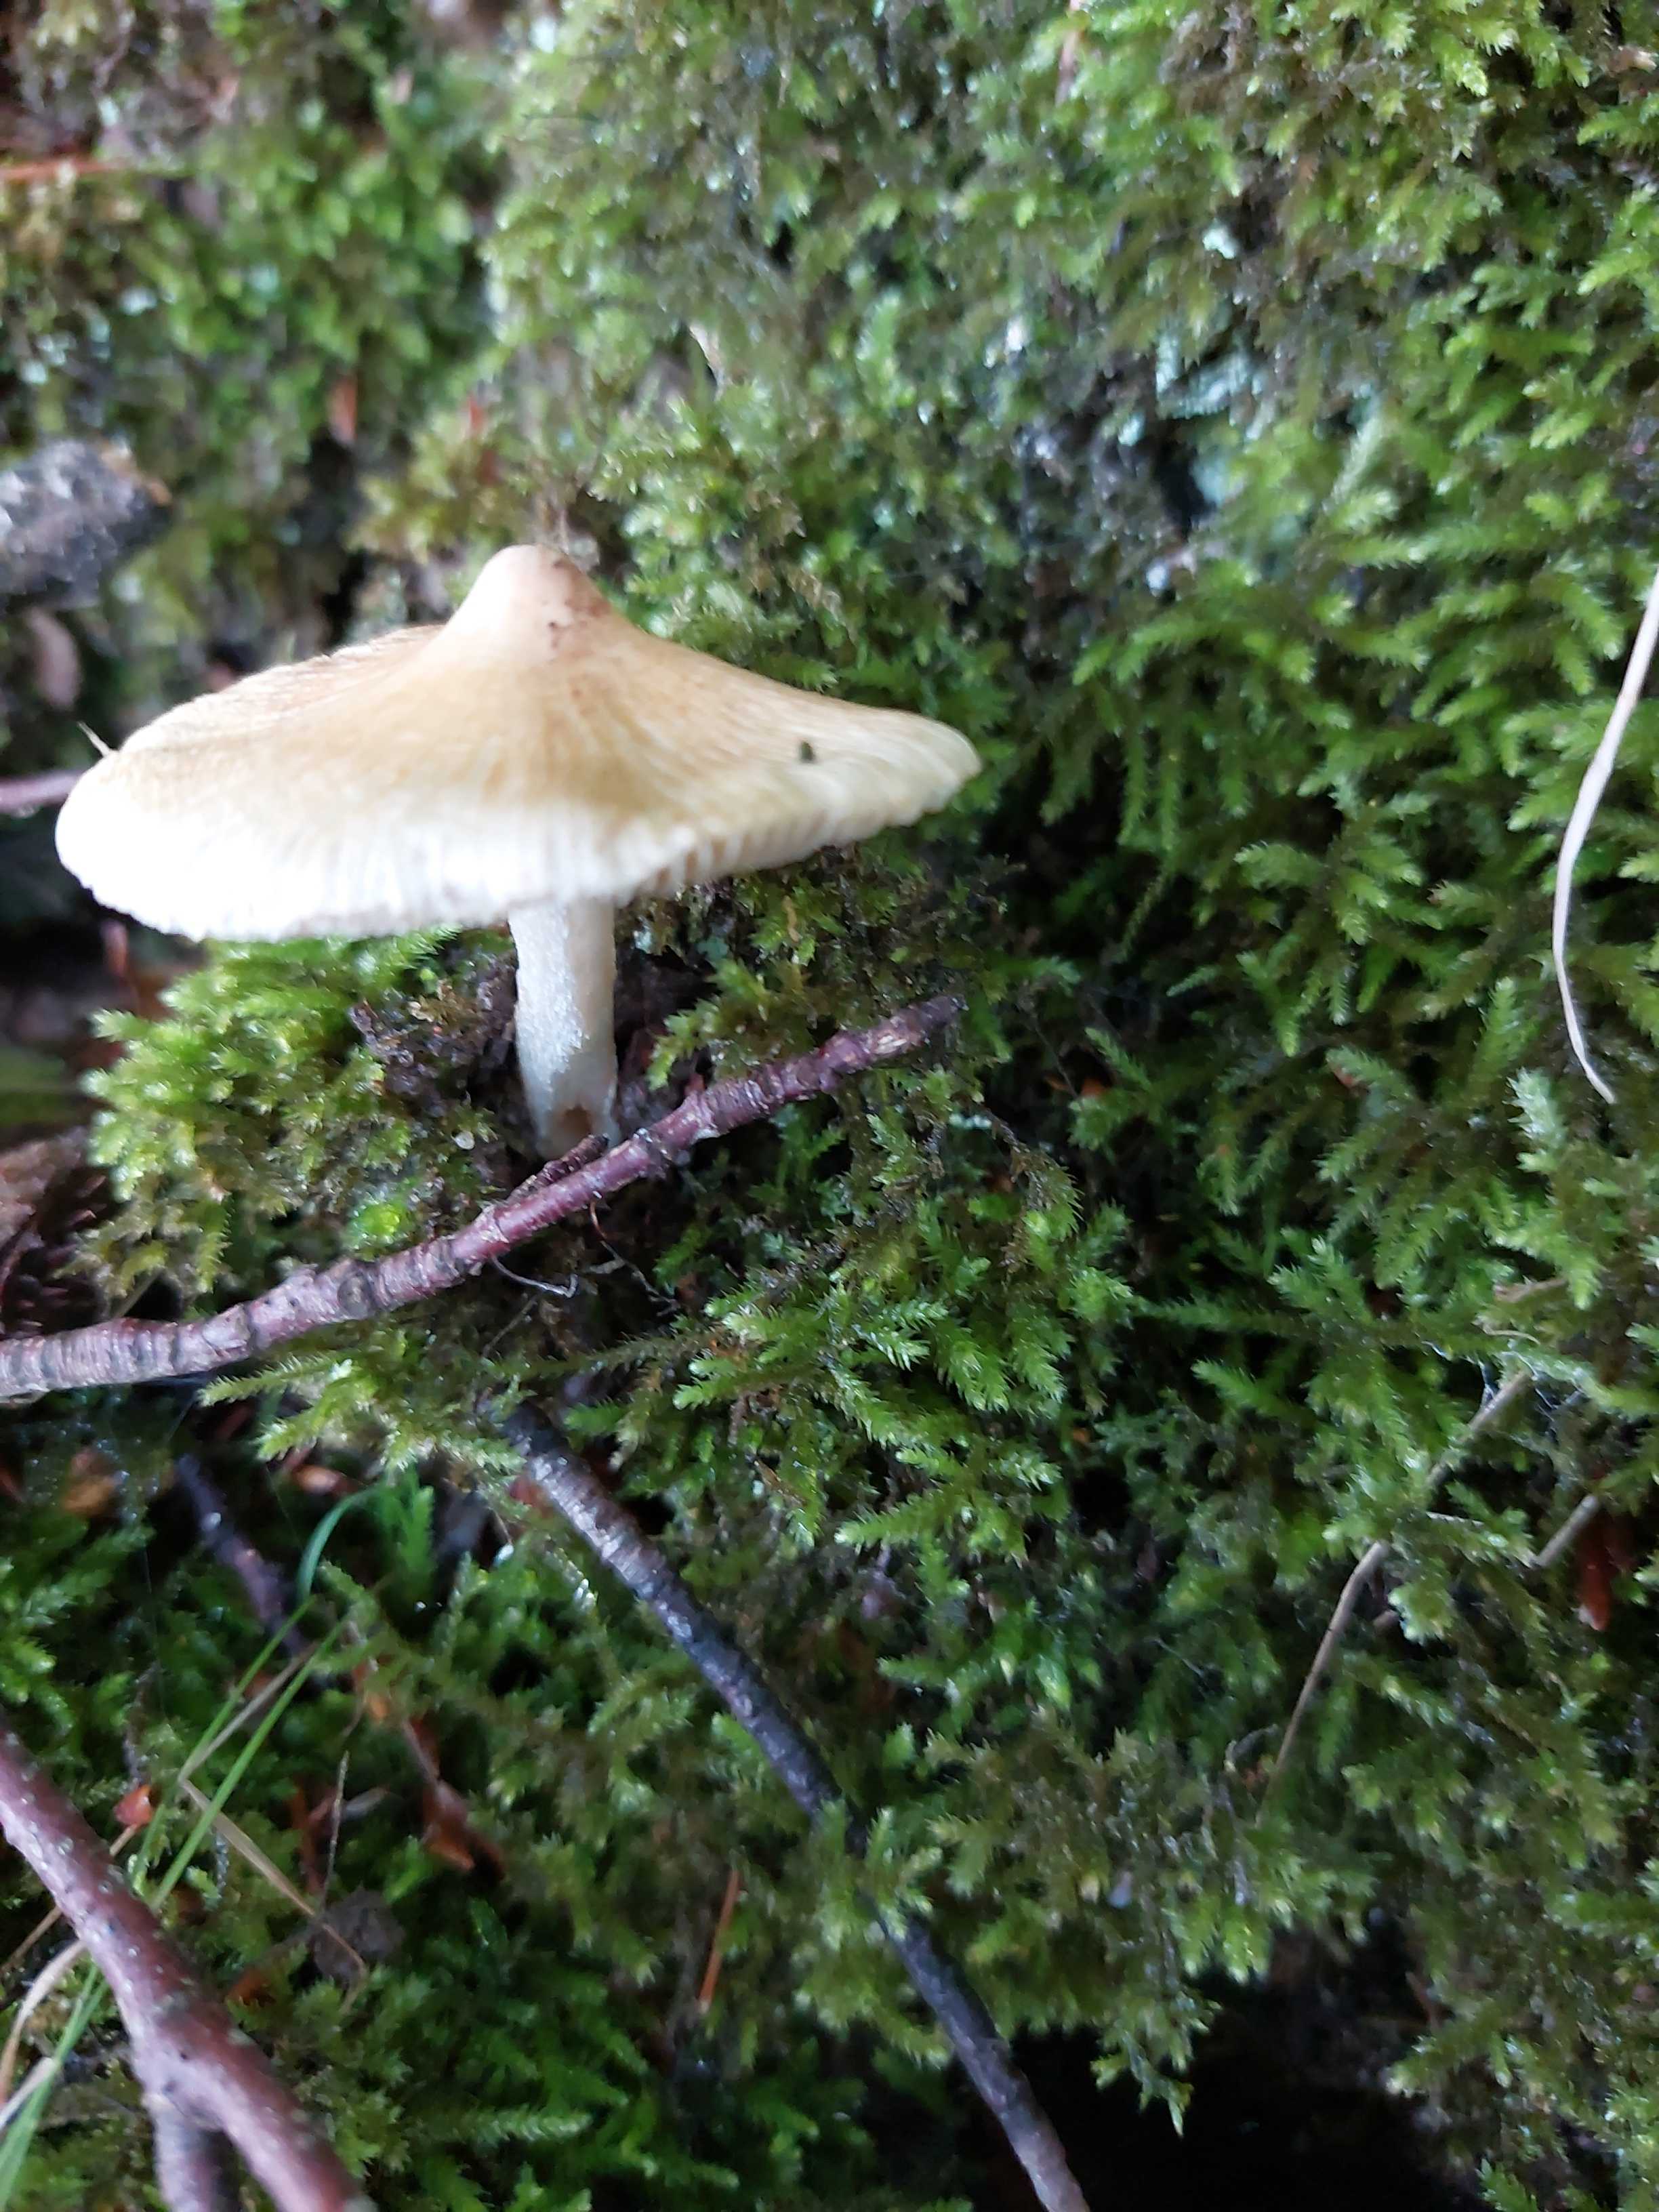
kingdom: Fungi
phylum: Basidiomycota
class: Agaricomycetes
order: Agaricales
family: Inocybaceae
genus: Pseudosperma
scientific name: Pseudosperma
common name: trævlhat
